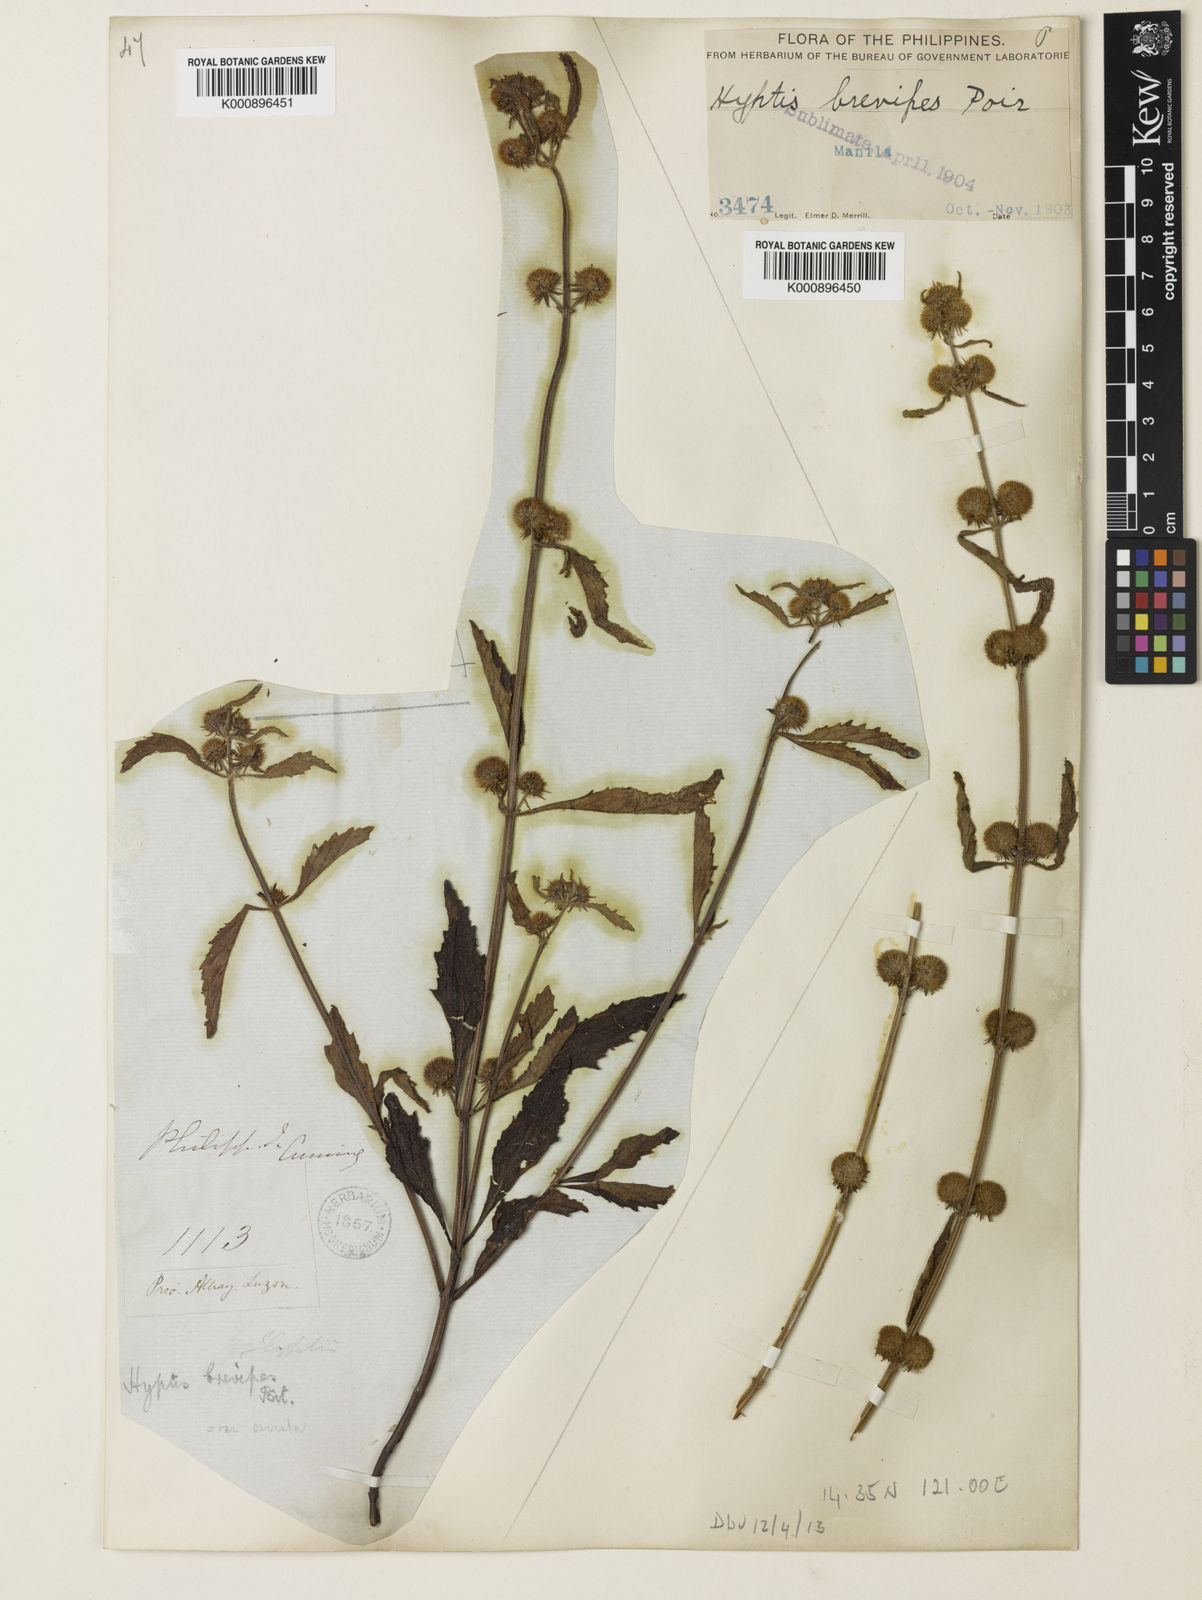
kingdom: Plantae
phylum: Tracheophyta
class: Magnoliopsida
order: Lamiales
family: Lamiaceae
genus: Hyptis
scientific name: Hyptis brevipes
